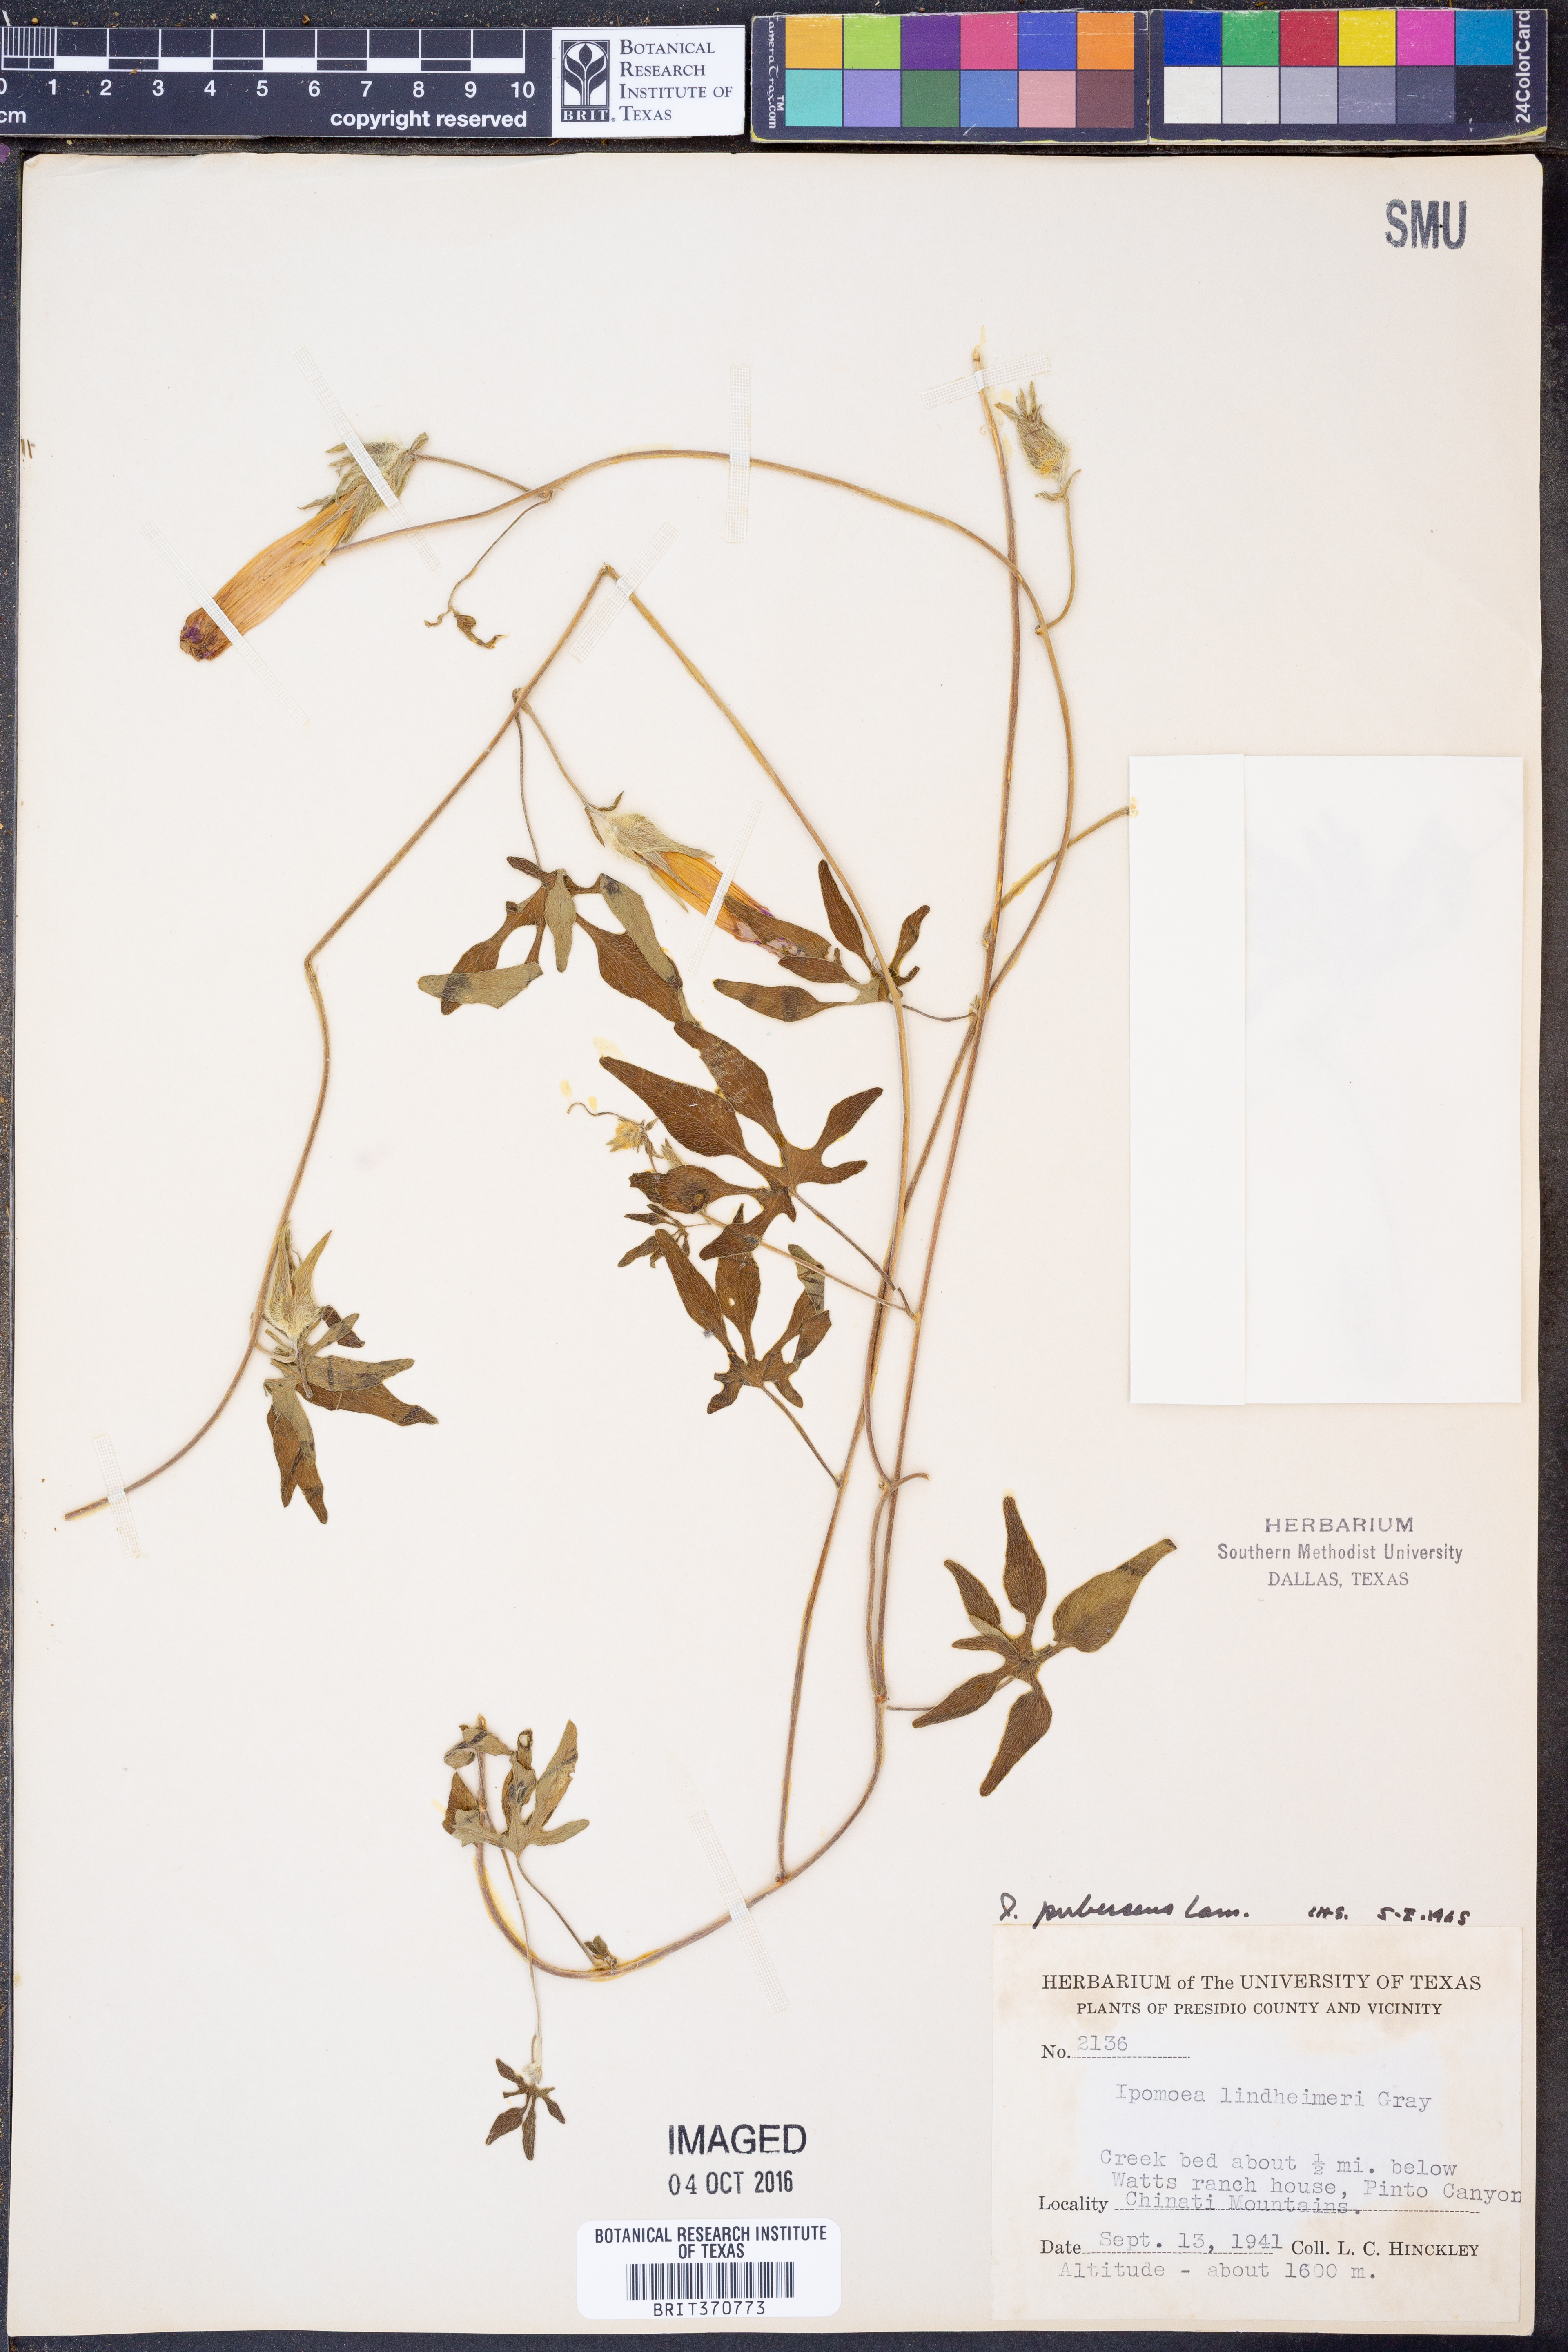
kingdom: Plantae
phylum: Tracheophyta
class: Magnoliopsida
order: Solanales
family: Convolvulaceae
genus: Ipomoea
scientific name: Ipomoea pubescens
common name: Silky morning-glory
